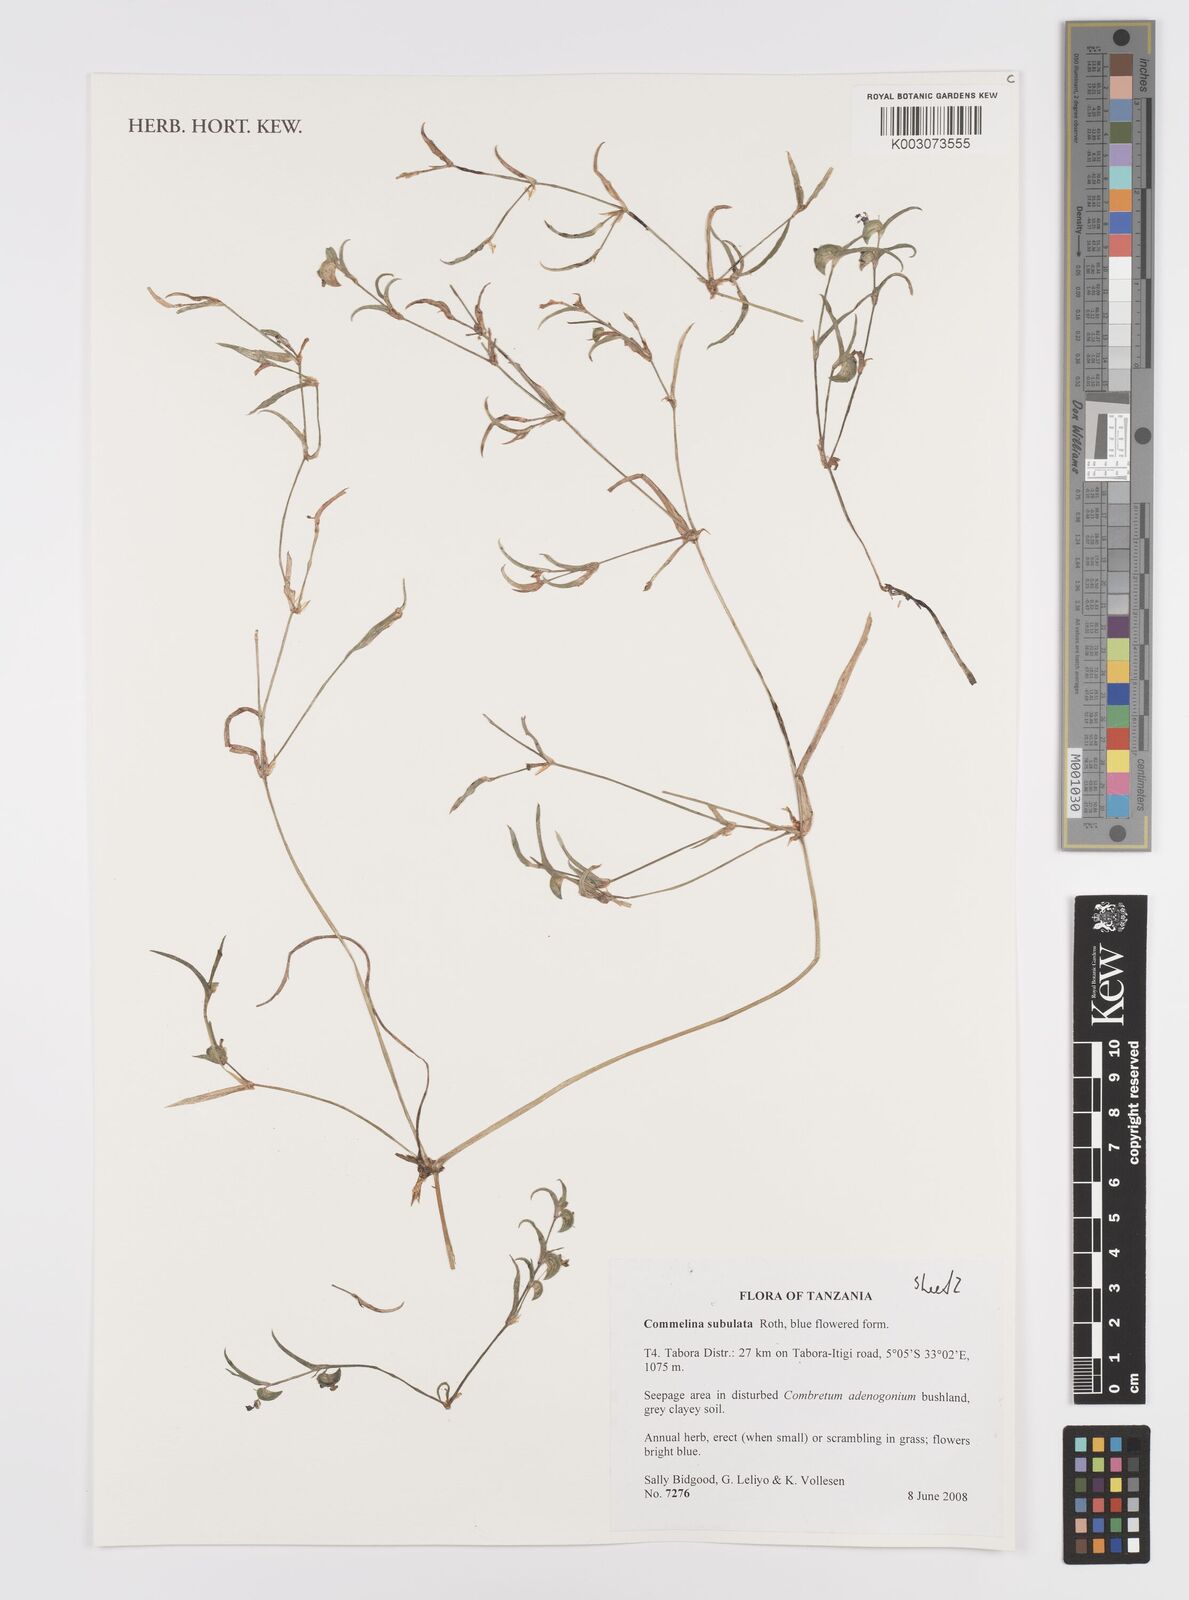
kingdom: Plantae
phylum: Tracheophyta
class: Liliopsida
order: Commelinales
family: Commelinaceae
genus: Commelina
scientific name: Commelina subulata
